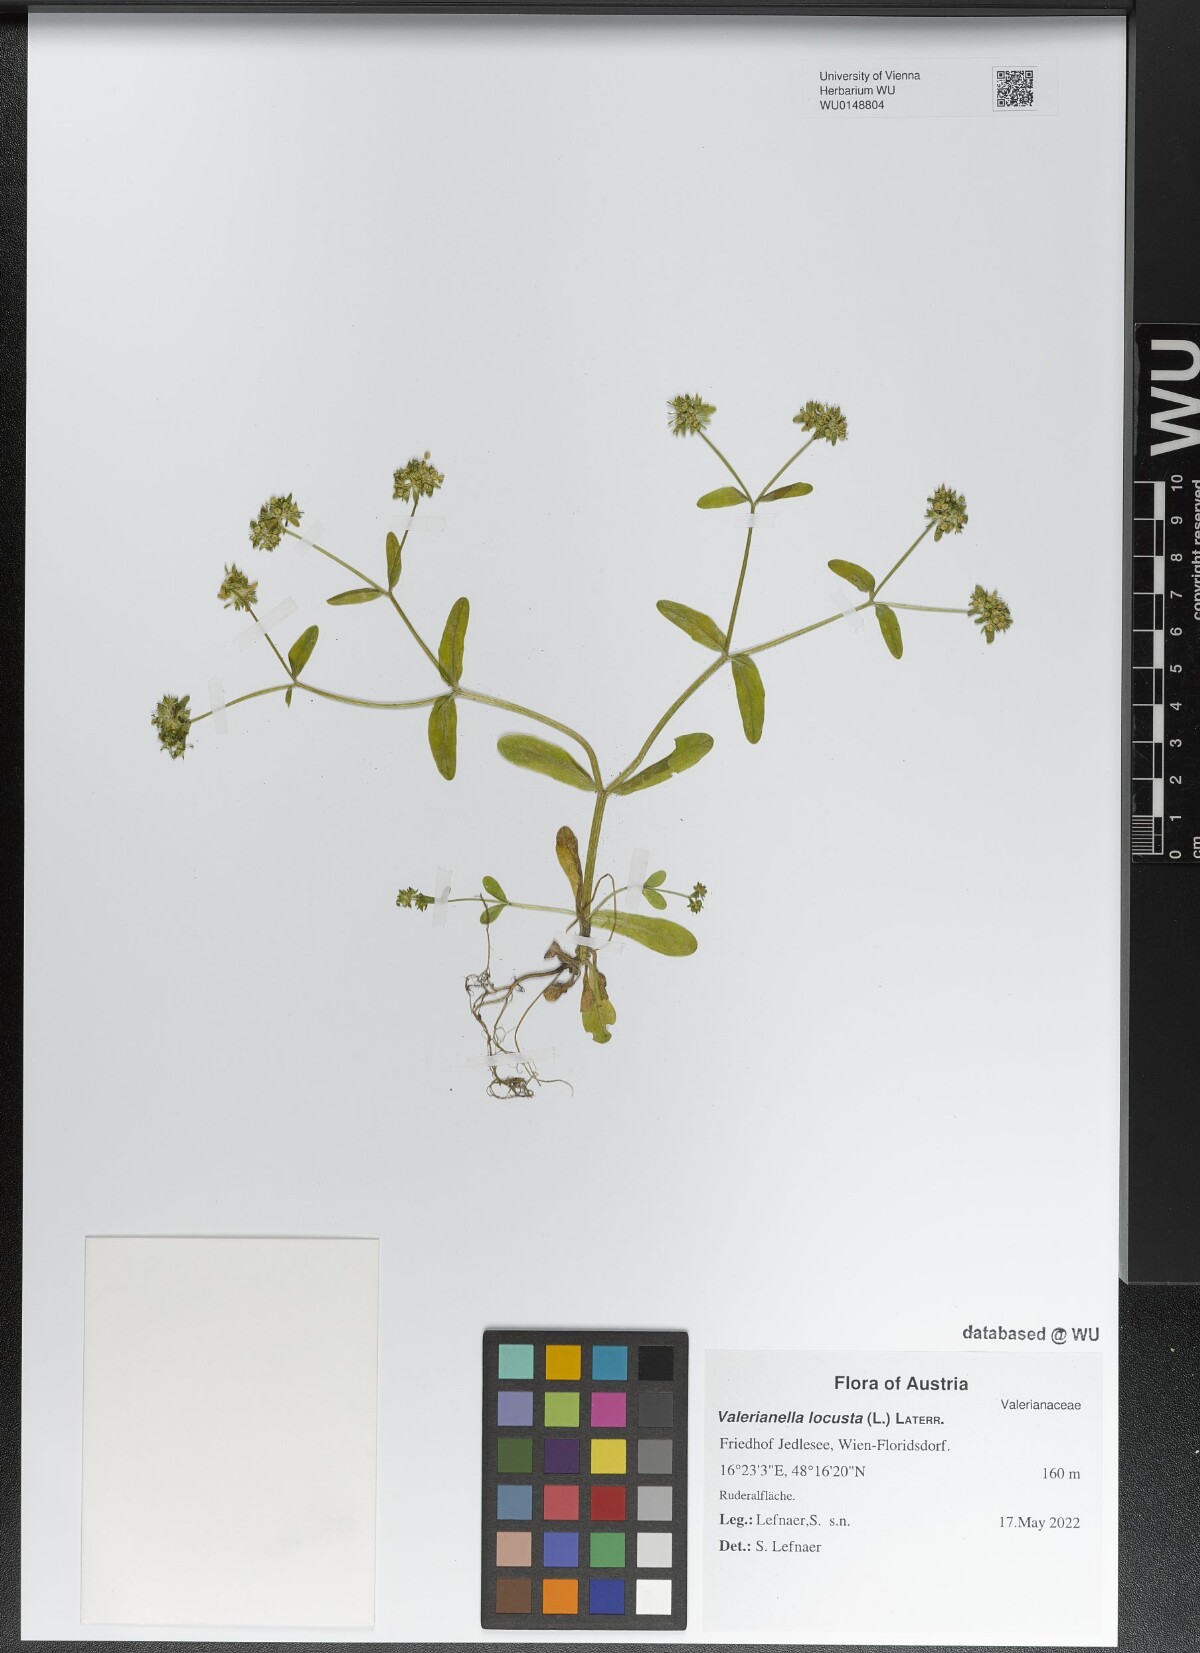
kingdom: Plantae
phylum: Tracheophyta
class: Magnoliopsida
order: Dipsacales
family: Caprifoliaceae
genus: Valerianella
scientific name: Valerianella locusta
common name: Common cornsalad
